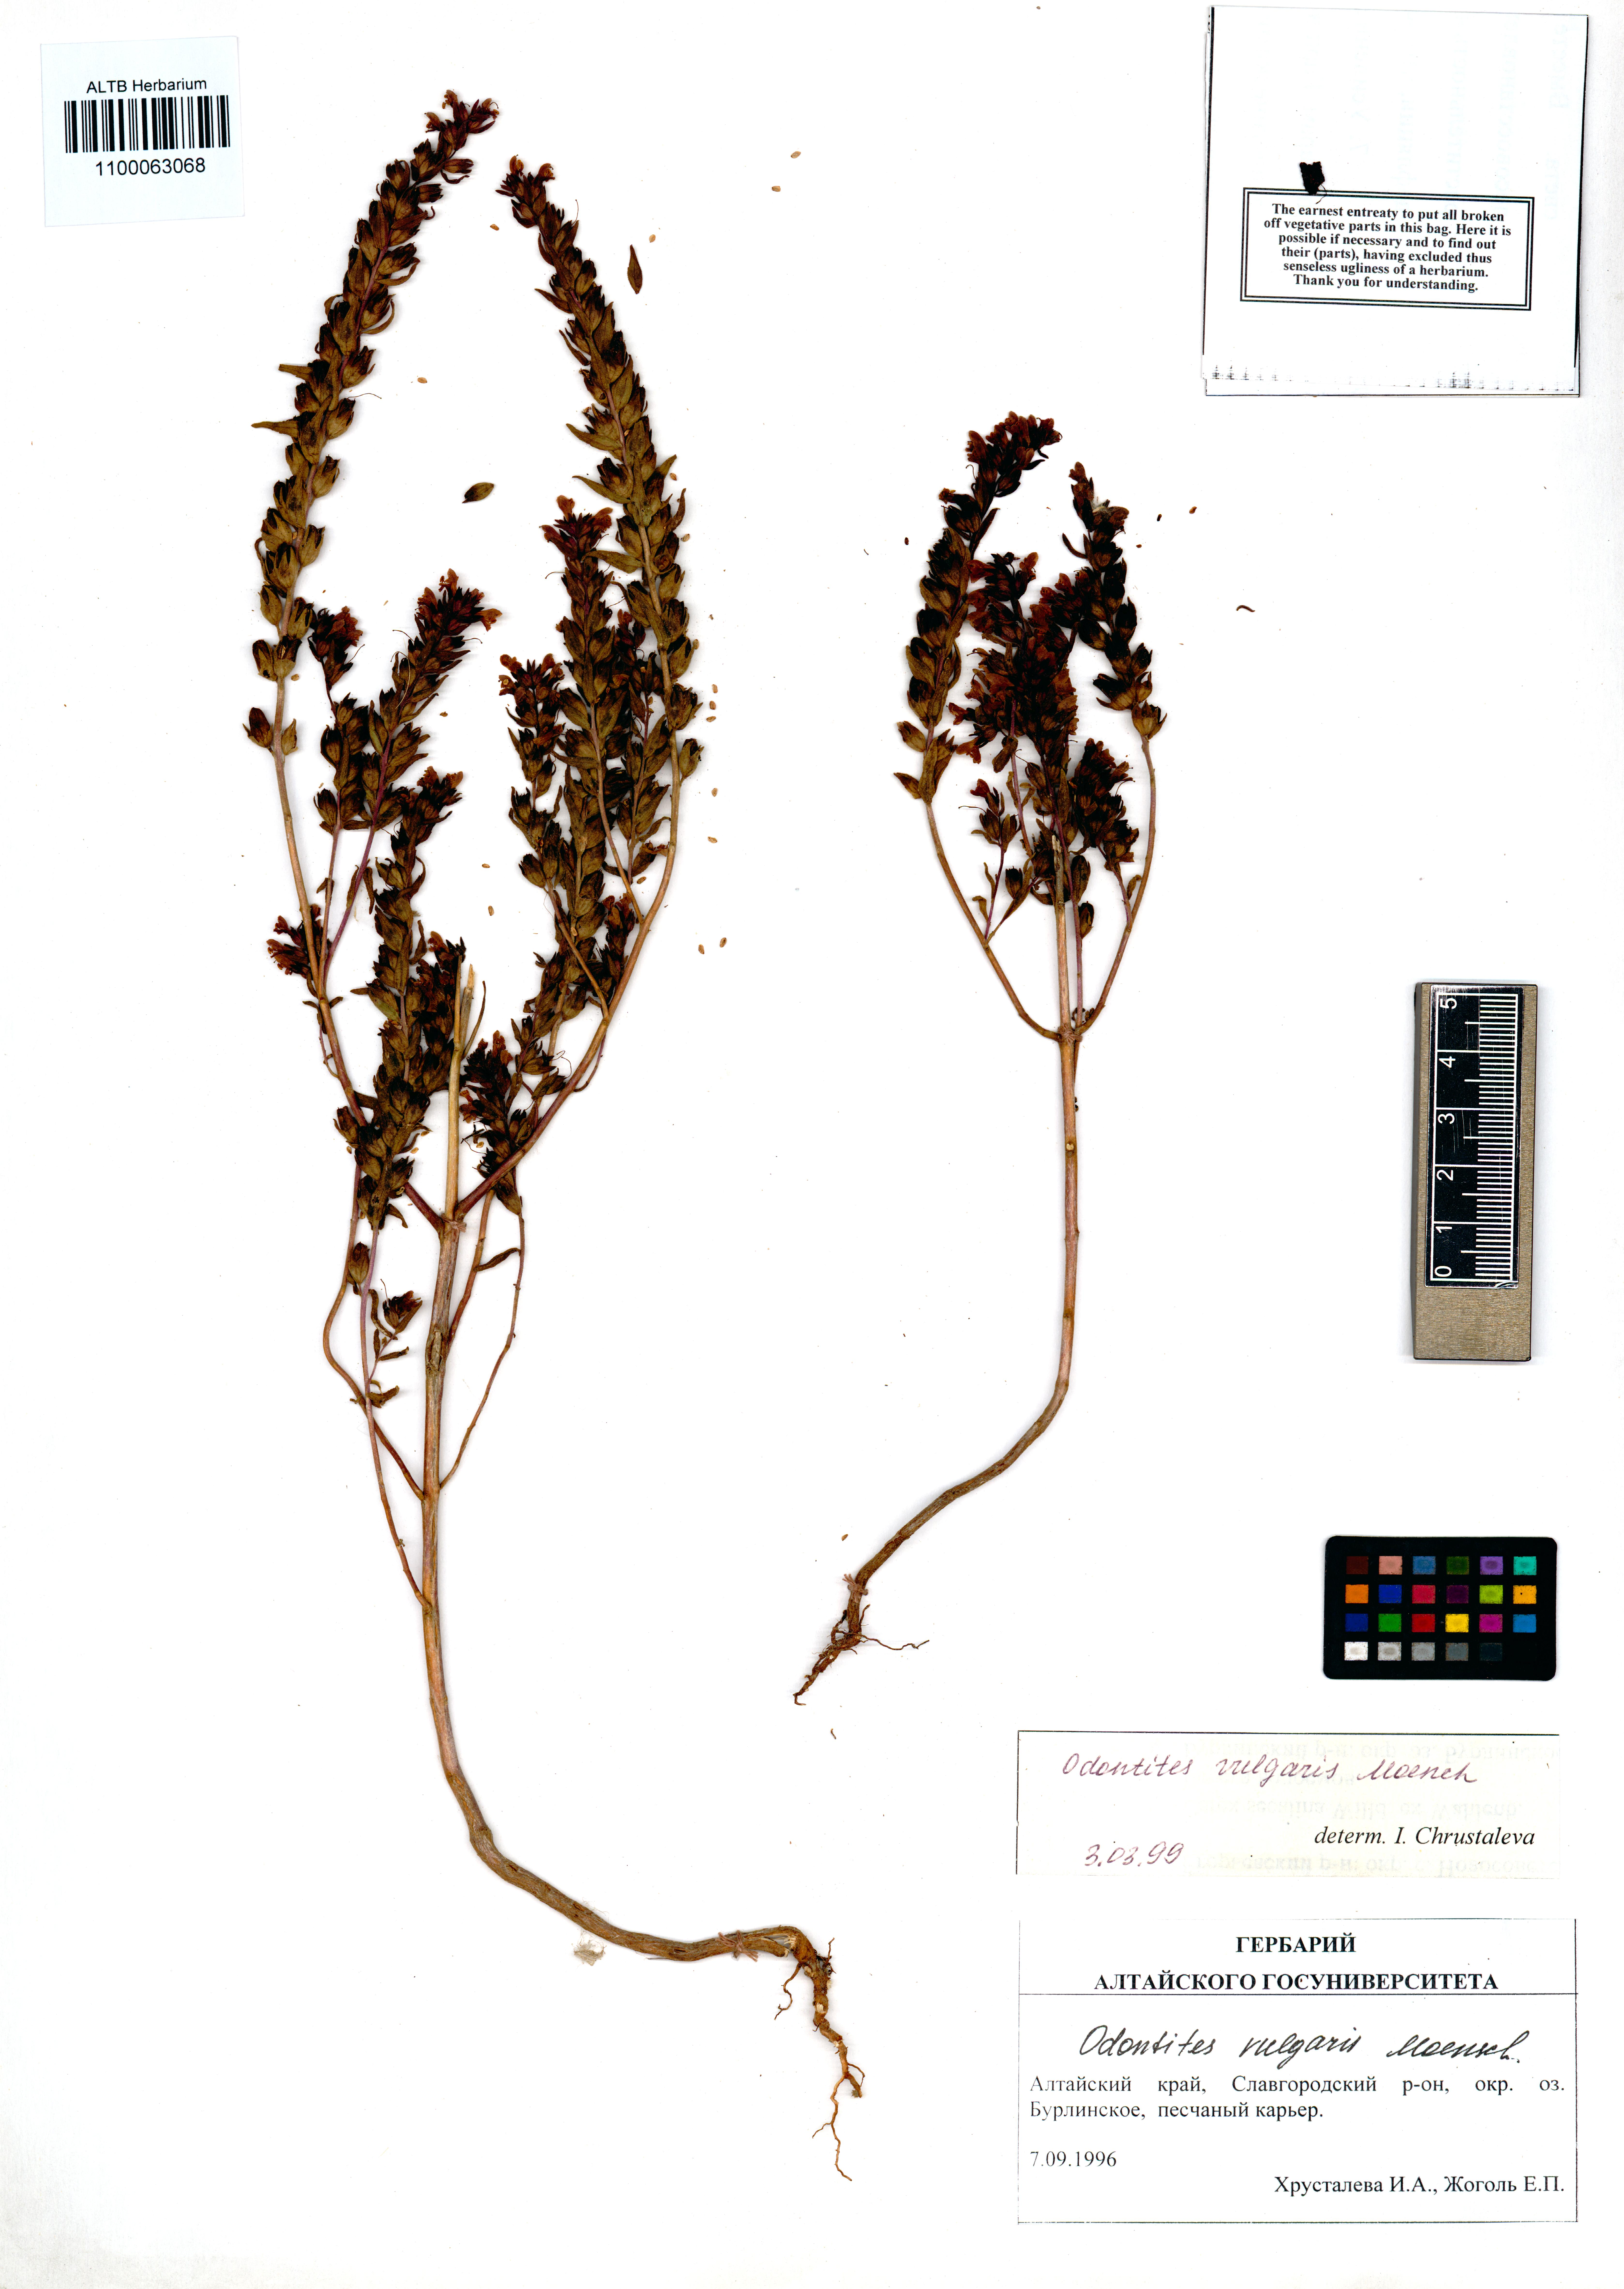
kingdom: Plantae
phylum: Tracheophyta
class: Magnoliopsida
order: Lamiales
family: Orobanchaceae
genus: Odontites
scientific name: Odontites vulgaris
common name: Broomrape
